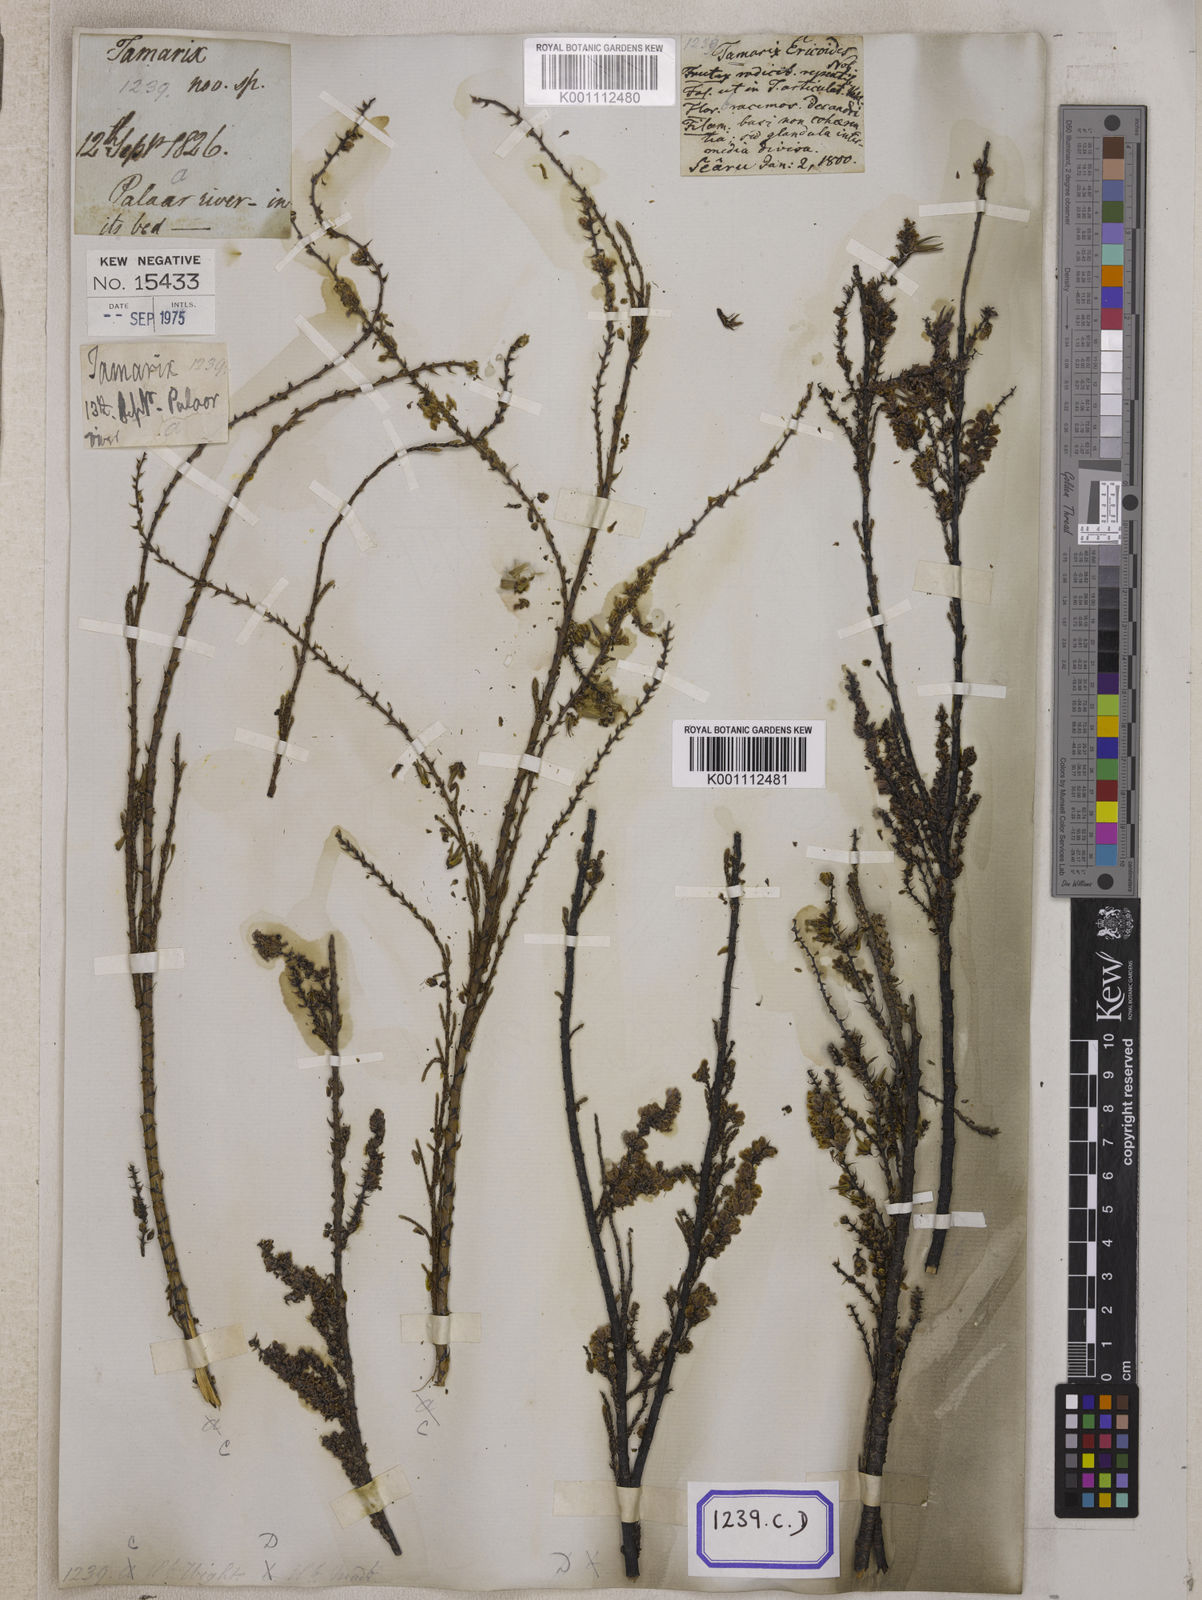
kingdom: Plantae
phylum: Tracheophyta
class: Magnoliopsida
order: Caryophyllales
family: Tamaricaceae
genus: Tamarix
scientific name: Tamarix ericoides
